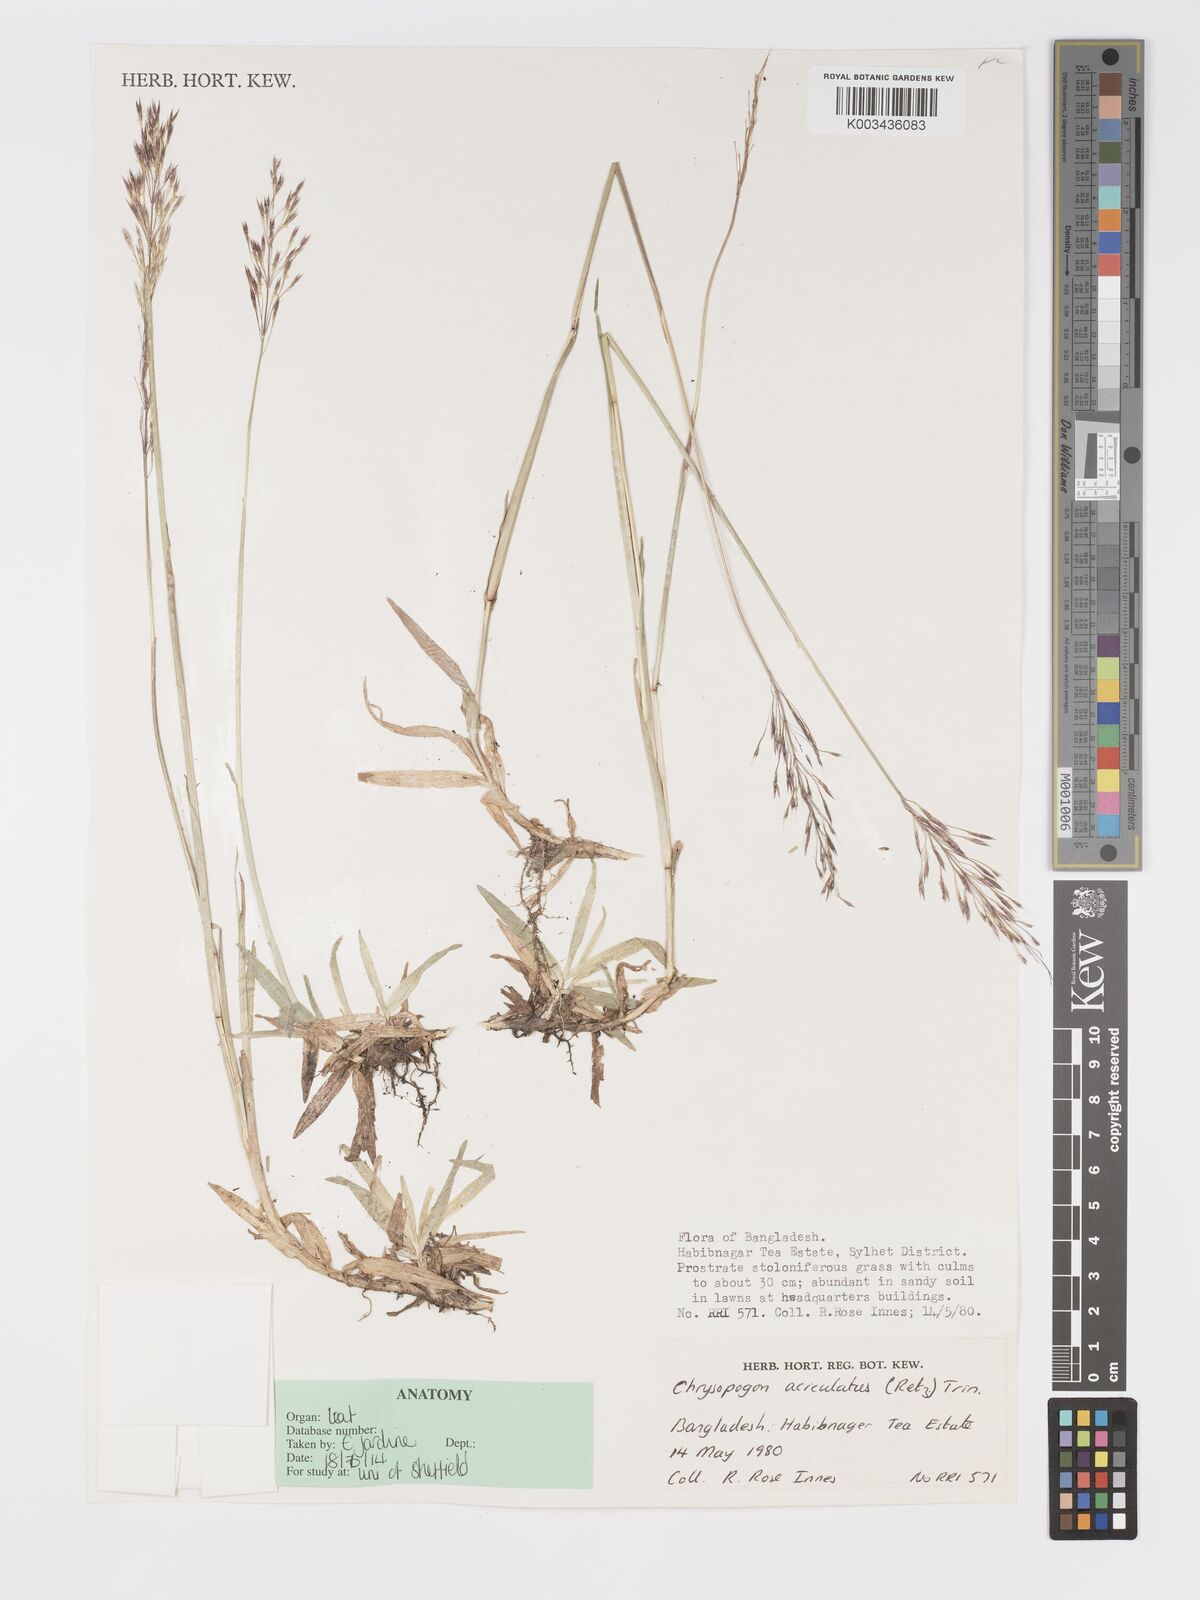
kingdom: Plantae
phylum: Tracheophyta
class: Liliopsida
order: Poales
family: Poaceae
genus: Chrysopogon
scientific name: Chrysopogon aciculatus
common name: Pilipiliula
